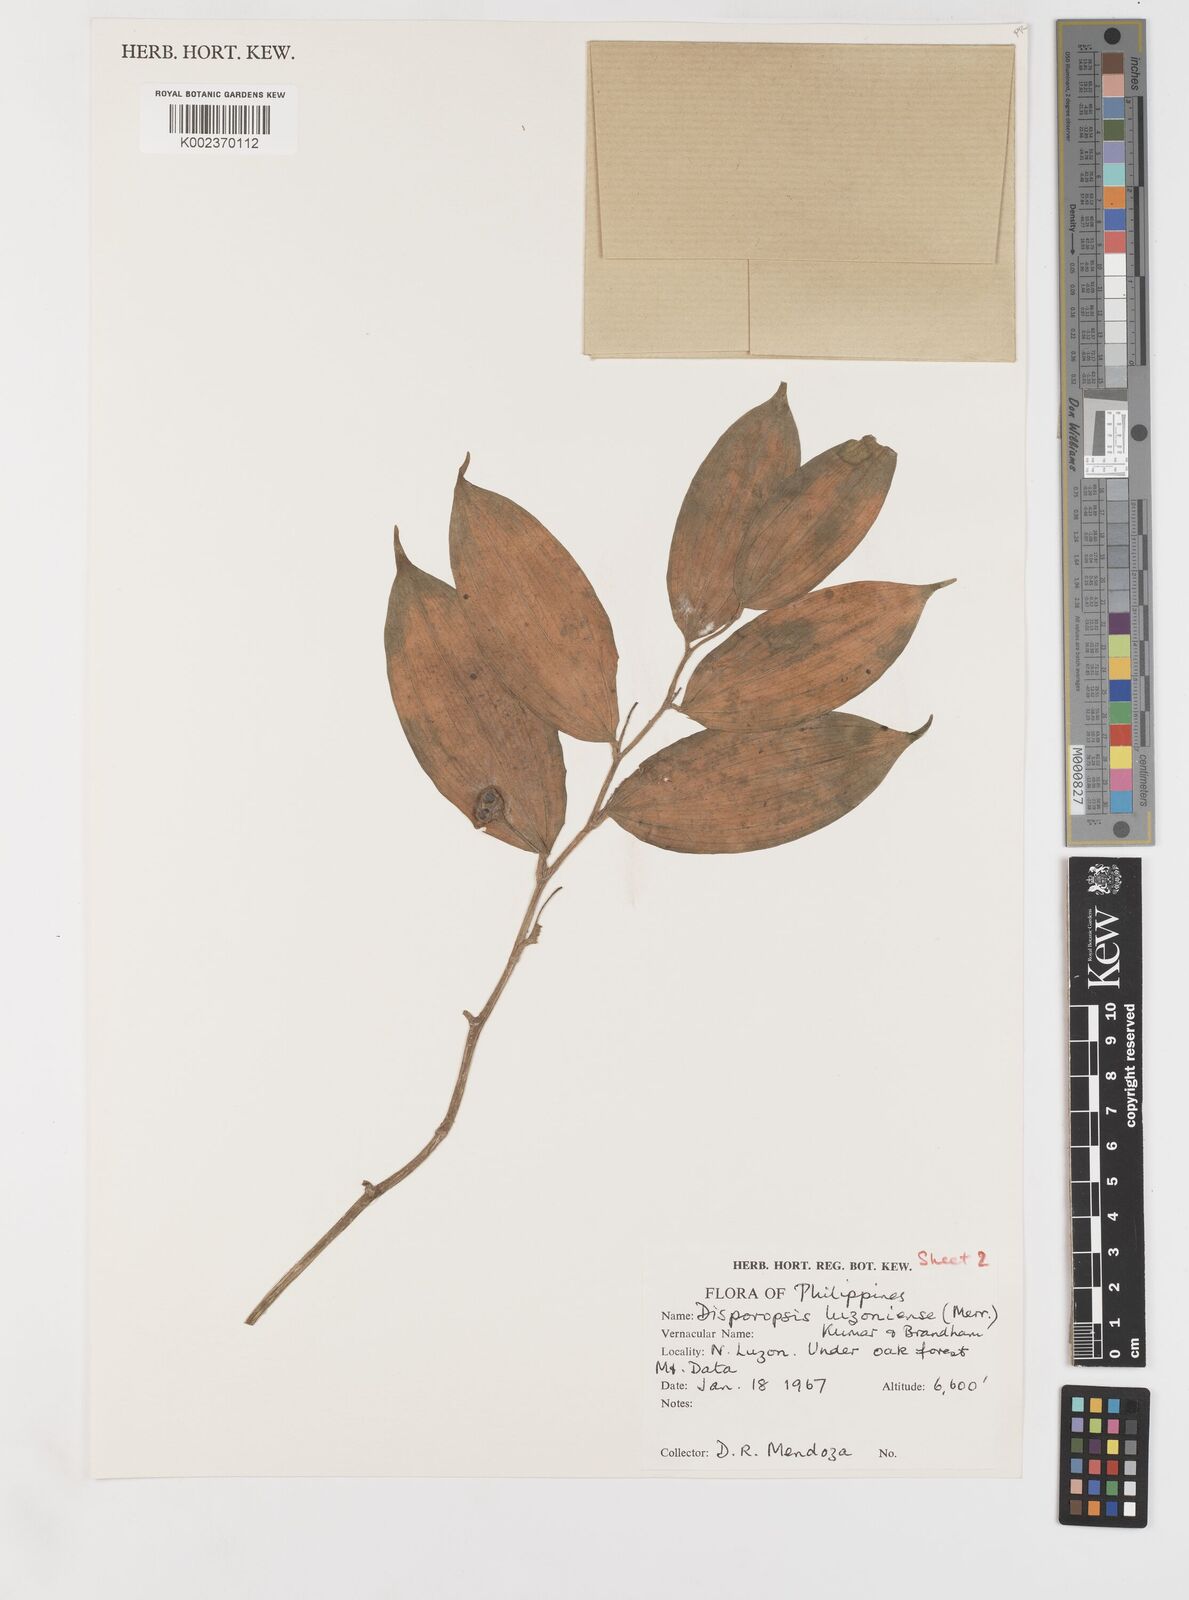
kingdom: Plantae
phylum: Tracheophyta
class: Liliopsida
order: Asparagales
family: Asparagaceae
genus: Disporopsis
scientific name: Disporopsis luzoniensis
